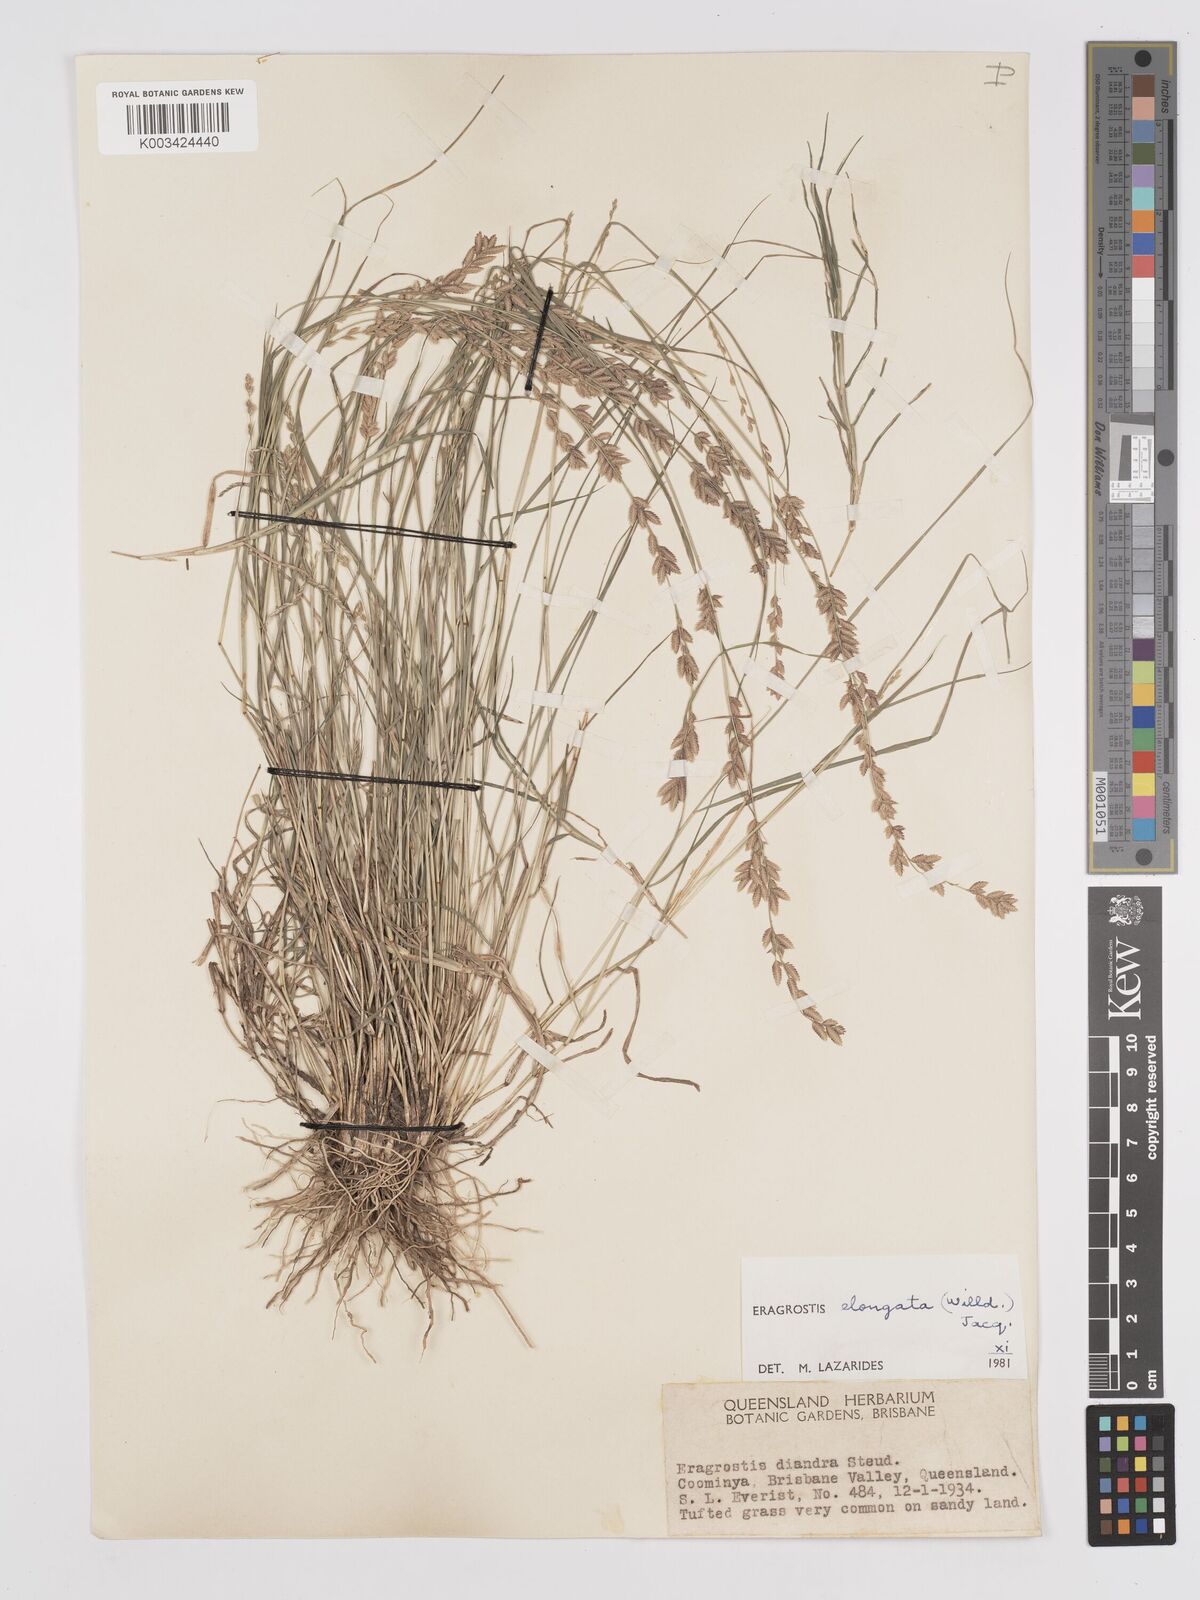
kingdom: Plantae
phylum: Tracheophyta
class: Liliopsida
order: Poales
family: Poaceae
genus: Eragrostis
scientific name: Eragrostis elongata
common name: Long lovegrass
